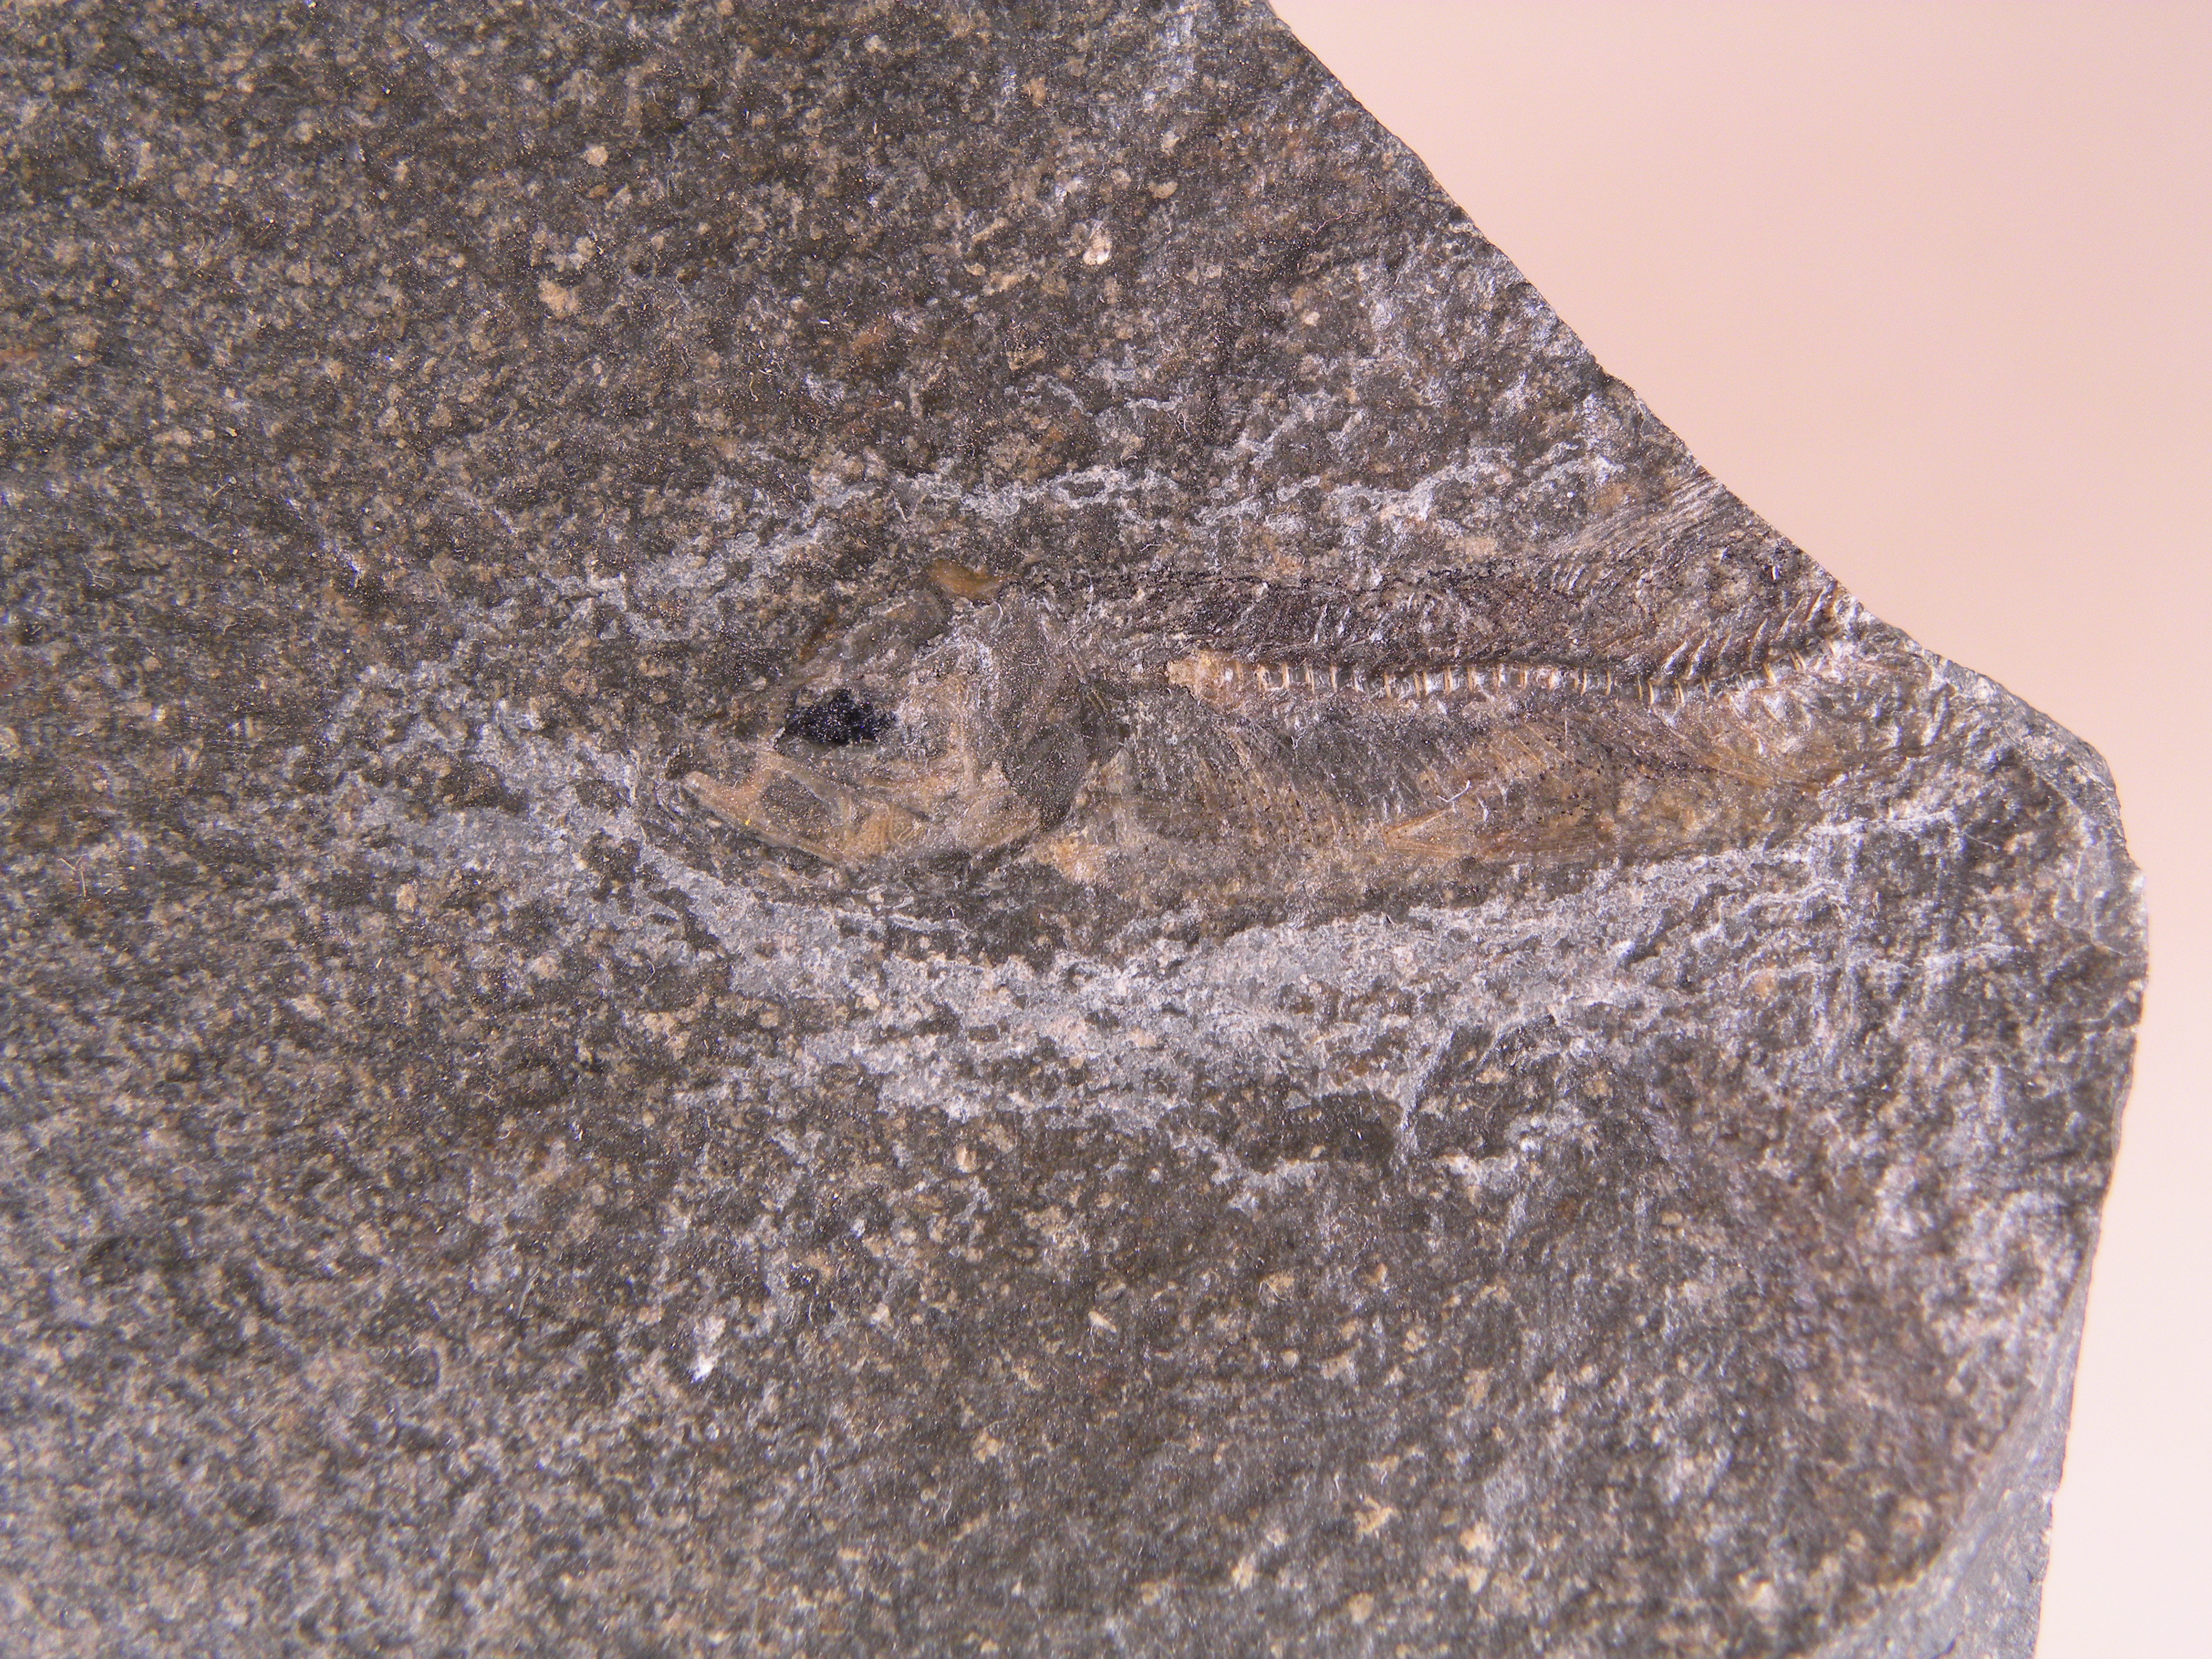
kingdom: Animalia
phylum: Chordata
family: Leptolepididae
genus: Leptolepis
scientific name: Leptolepis normandica
